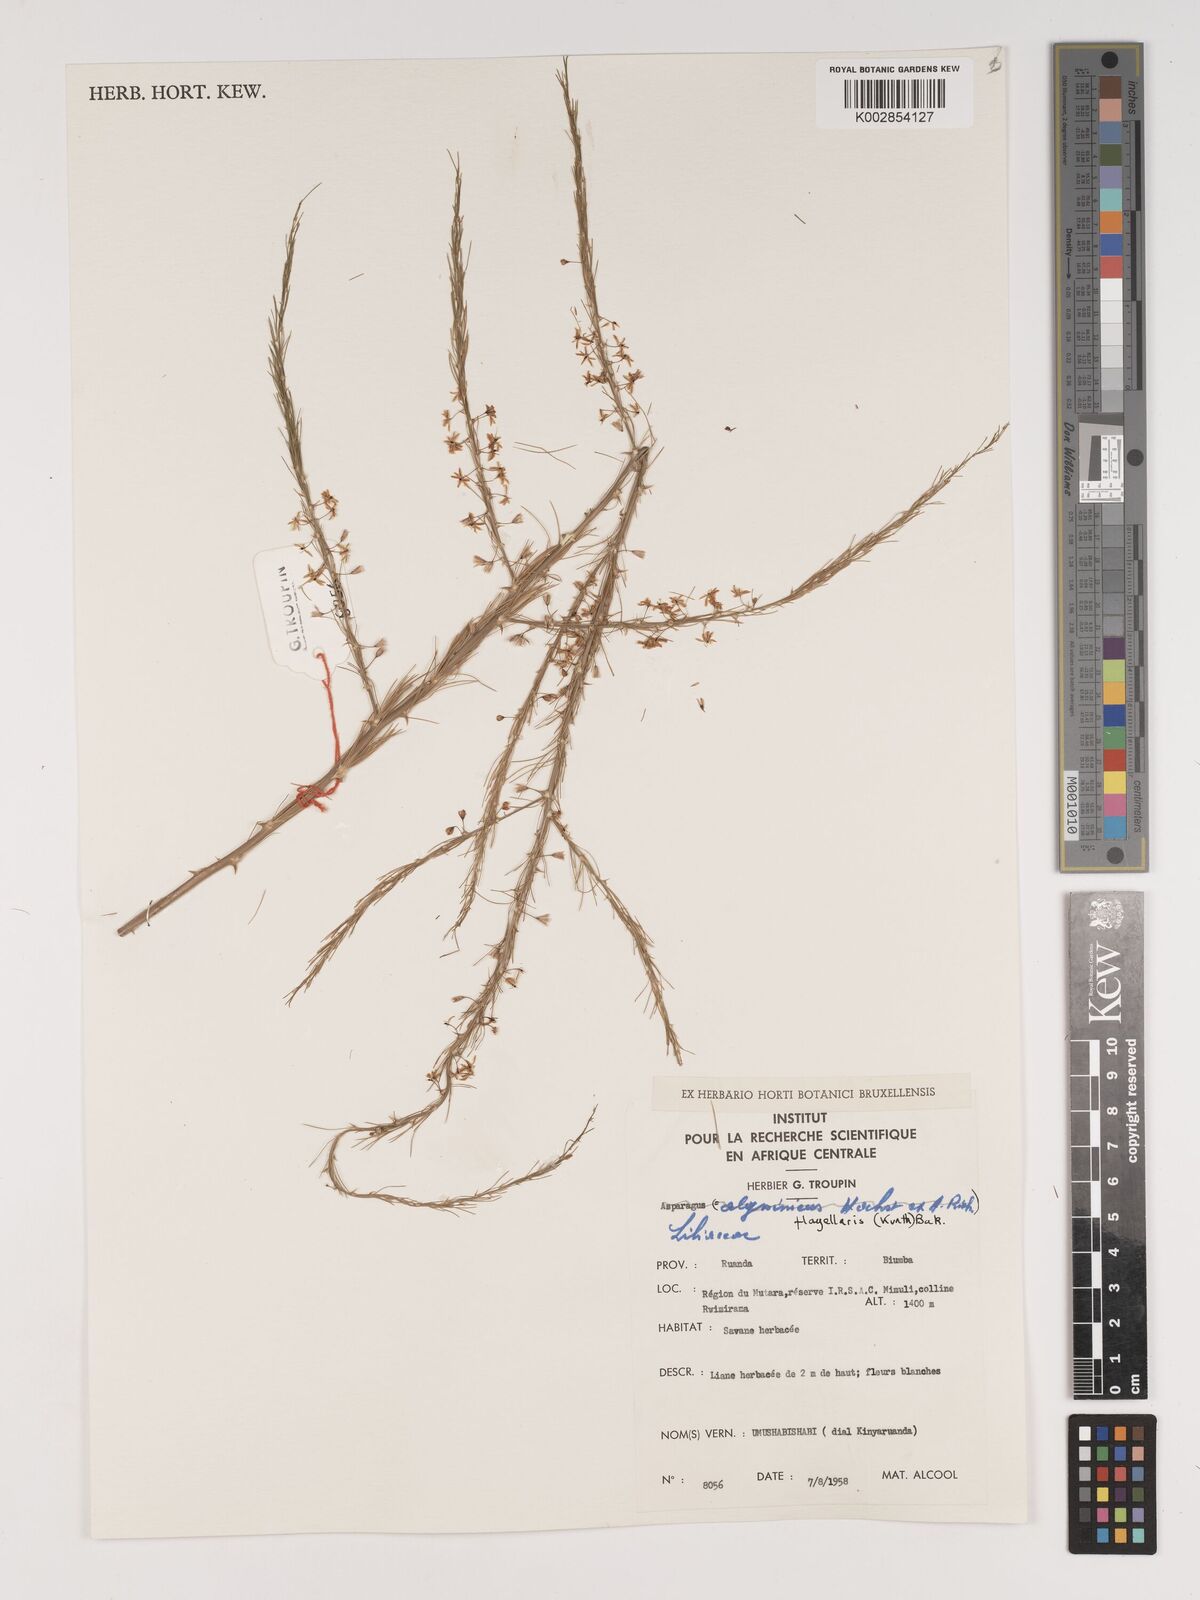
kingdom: Plantae
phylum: Tracheophyta
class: Liliopsida
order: Asparagales
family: Asparagaceae
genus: Asparagus
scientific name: Asparagus flagellaris
